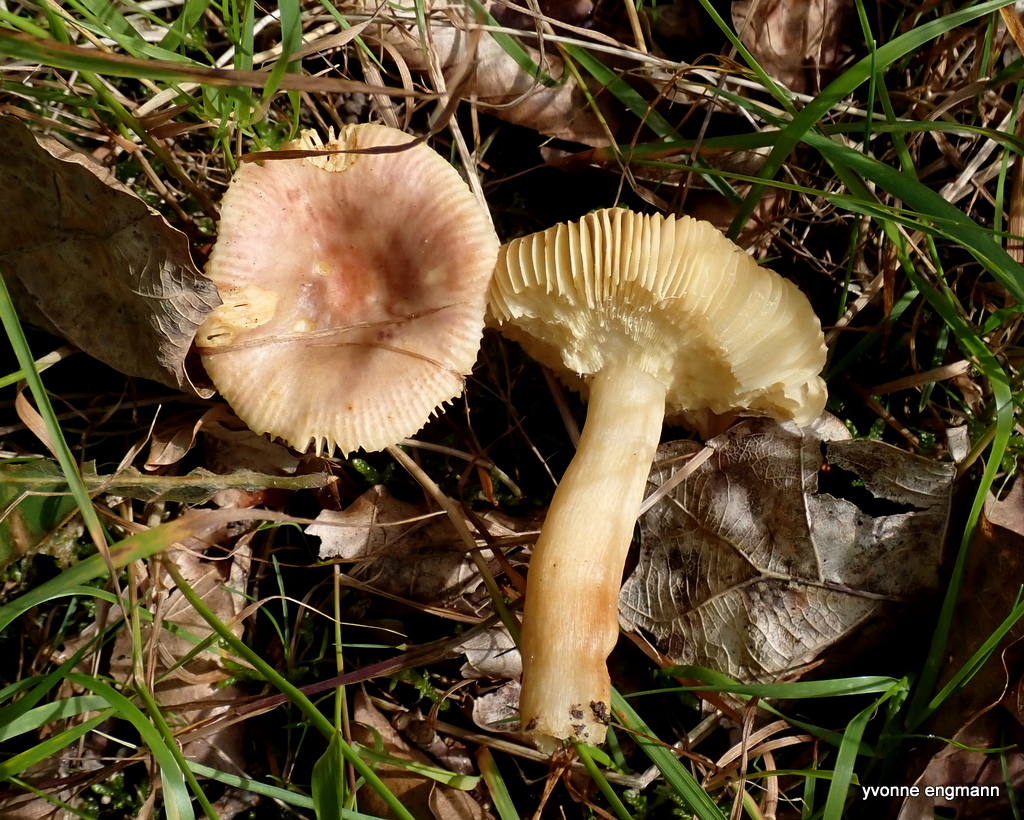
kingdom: Fungi
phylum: Basidiomycota
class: Agaricomycetes
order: Russulales
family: Russulaceae
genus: Russula
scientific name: Russula puellaris
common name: gulstokket skørhat
